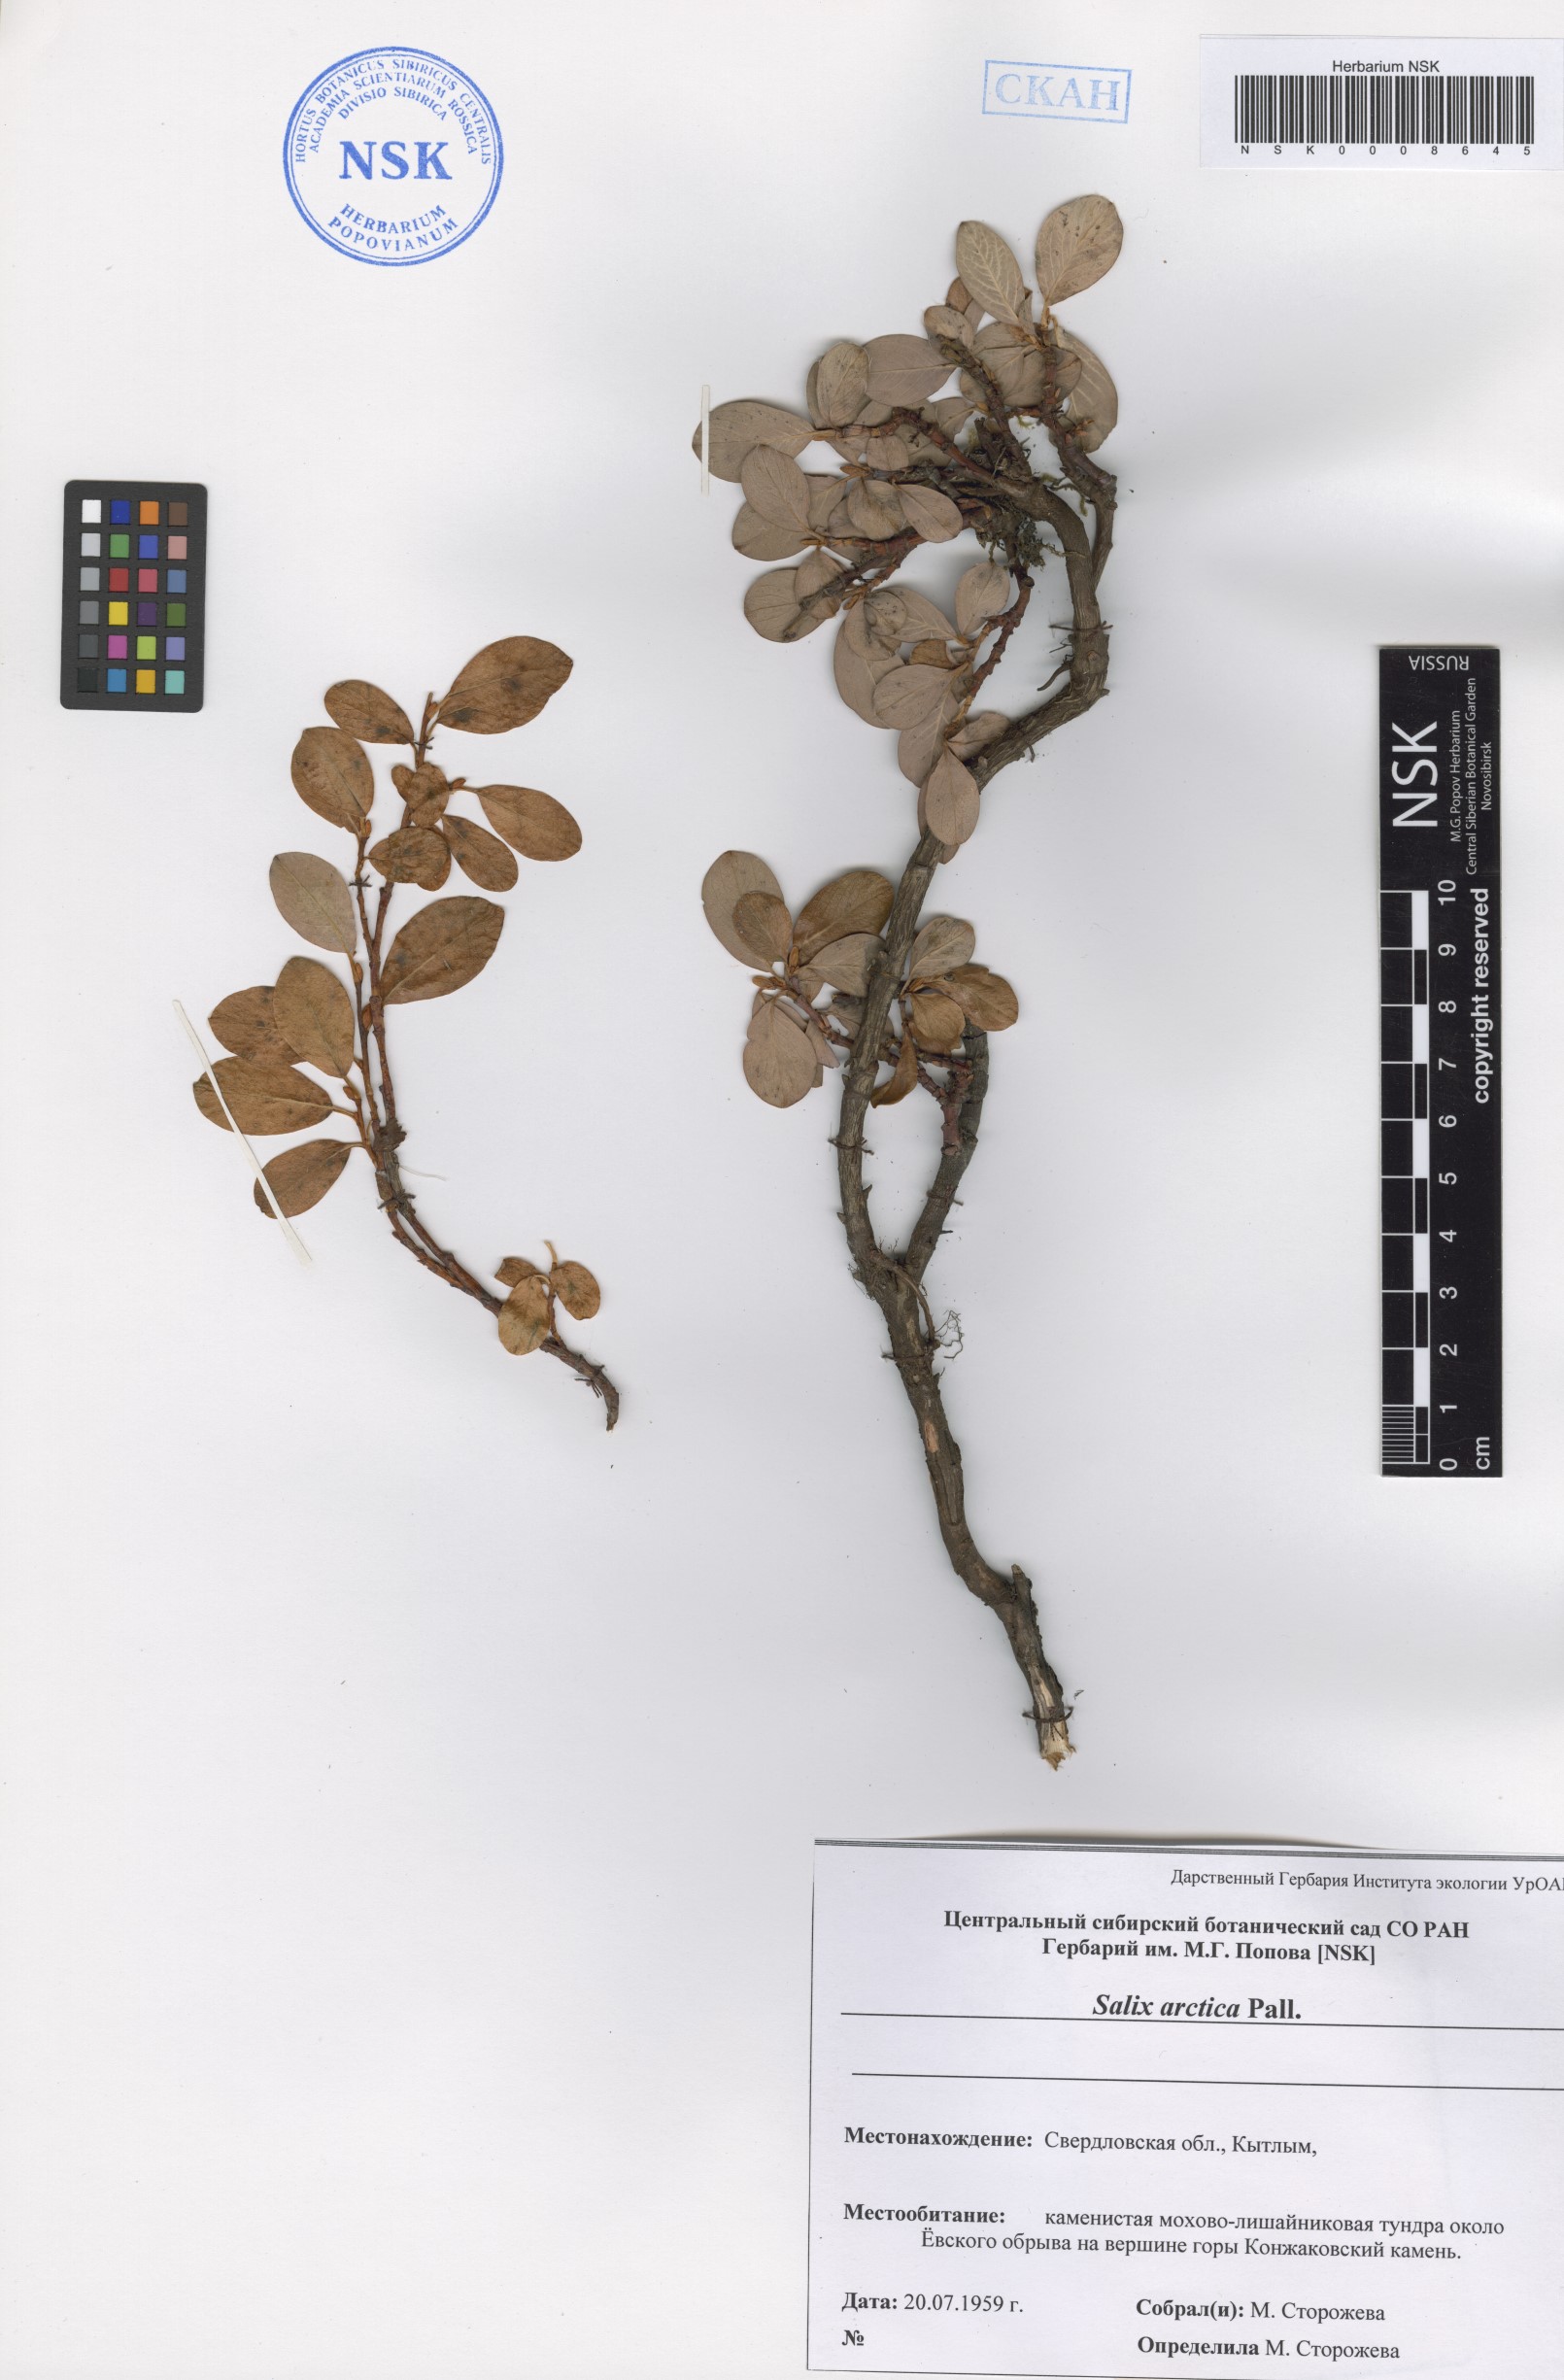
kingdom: Plantae
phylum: Tracheophyta
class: Magnoliopsida
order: Malpighiales
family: Salicaceae
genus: Salix
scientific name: Salix arctica
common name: Arctic willow
